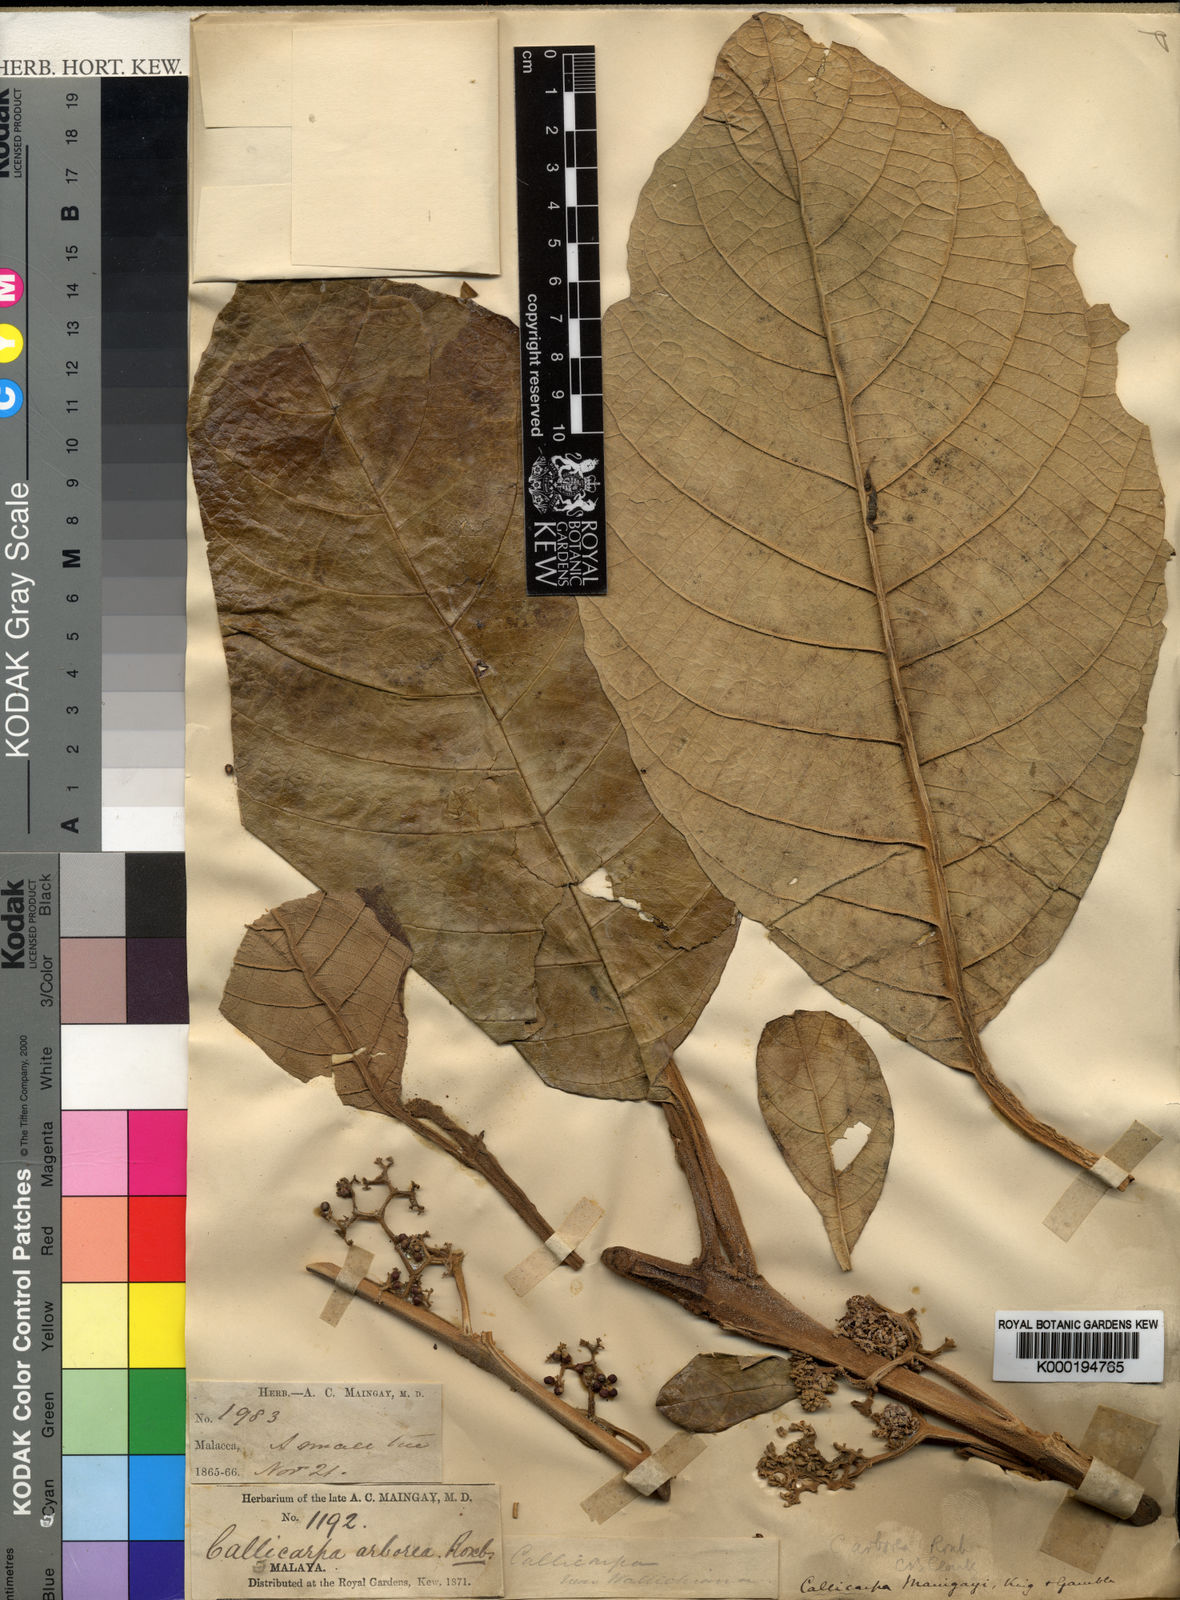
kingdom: Plantae
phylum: Tracheophyta
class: Magnoliopsida
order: Lamiales
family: Lamiaceae
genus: Callicarpa
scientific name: Callicarpa maingayi
